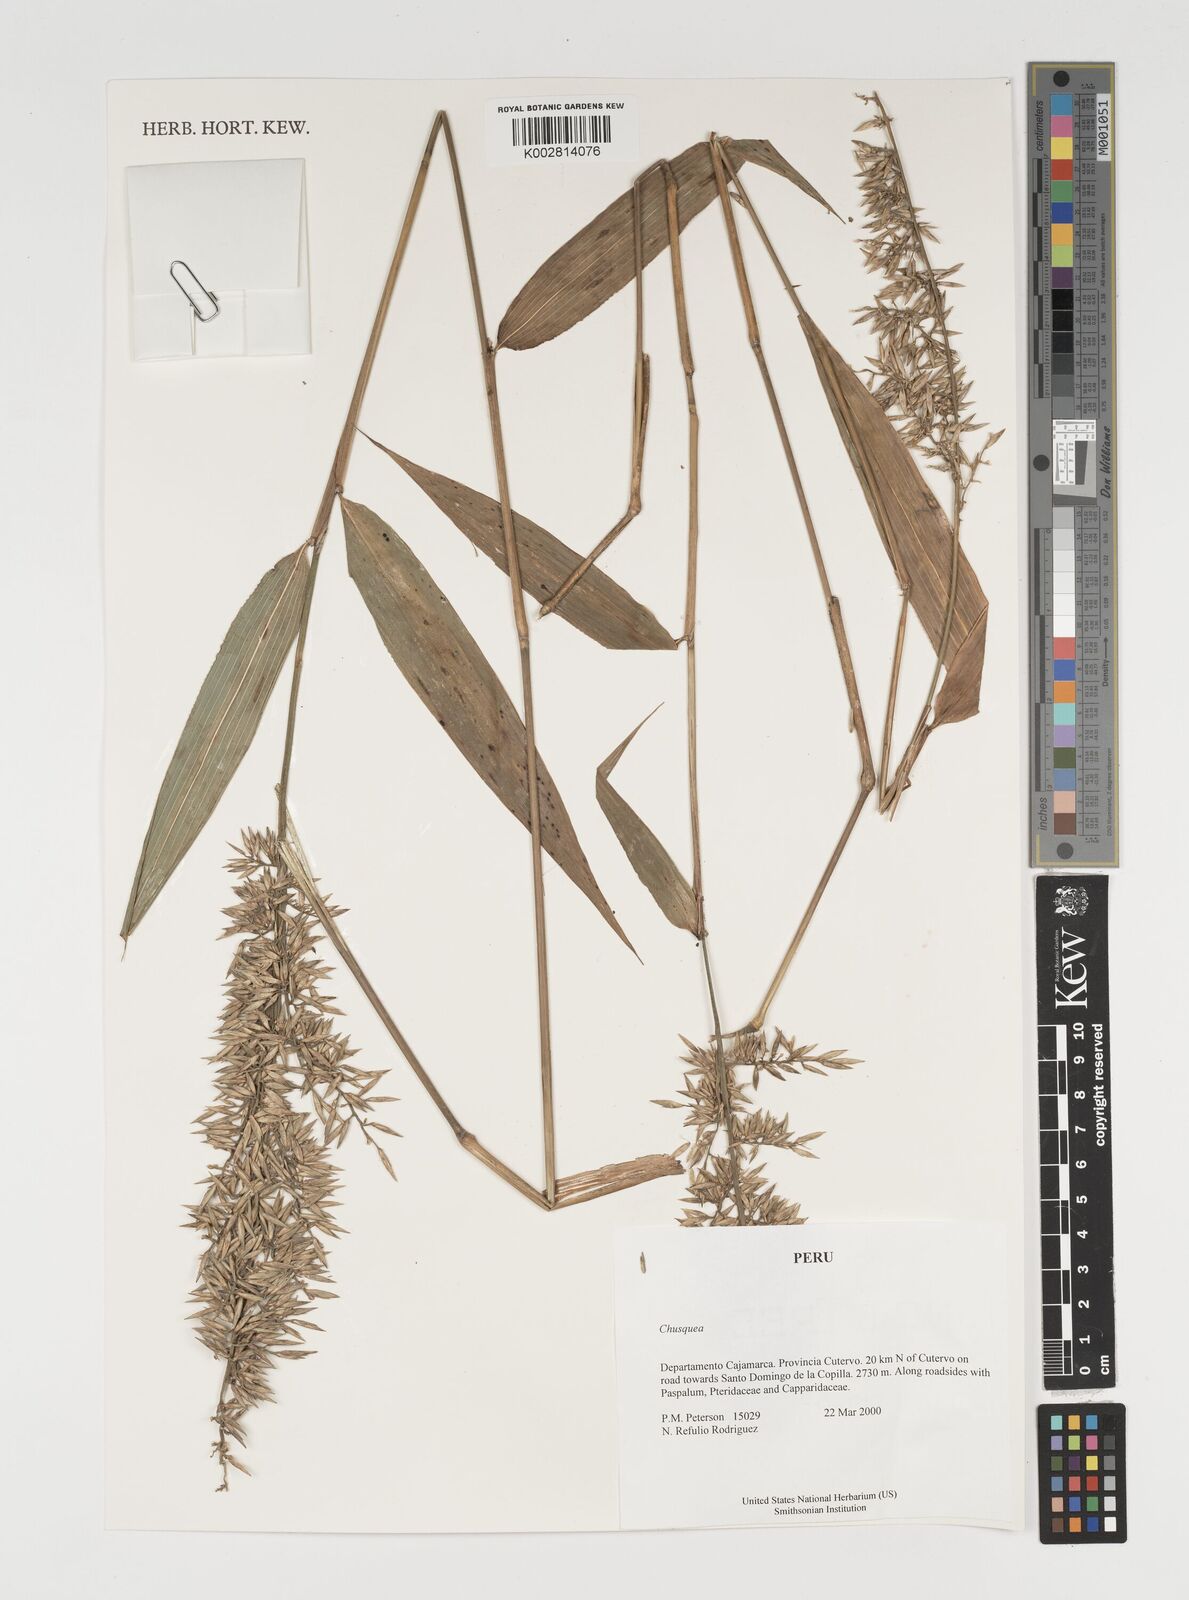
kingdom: Plantae
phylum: Tracheophyta
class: Liliopsida
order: Poales
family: Poaceae
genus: Chusquea
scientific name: Chusquea
